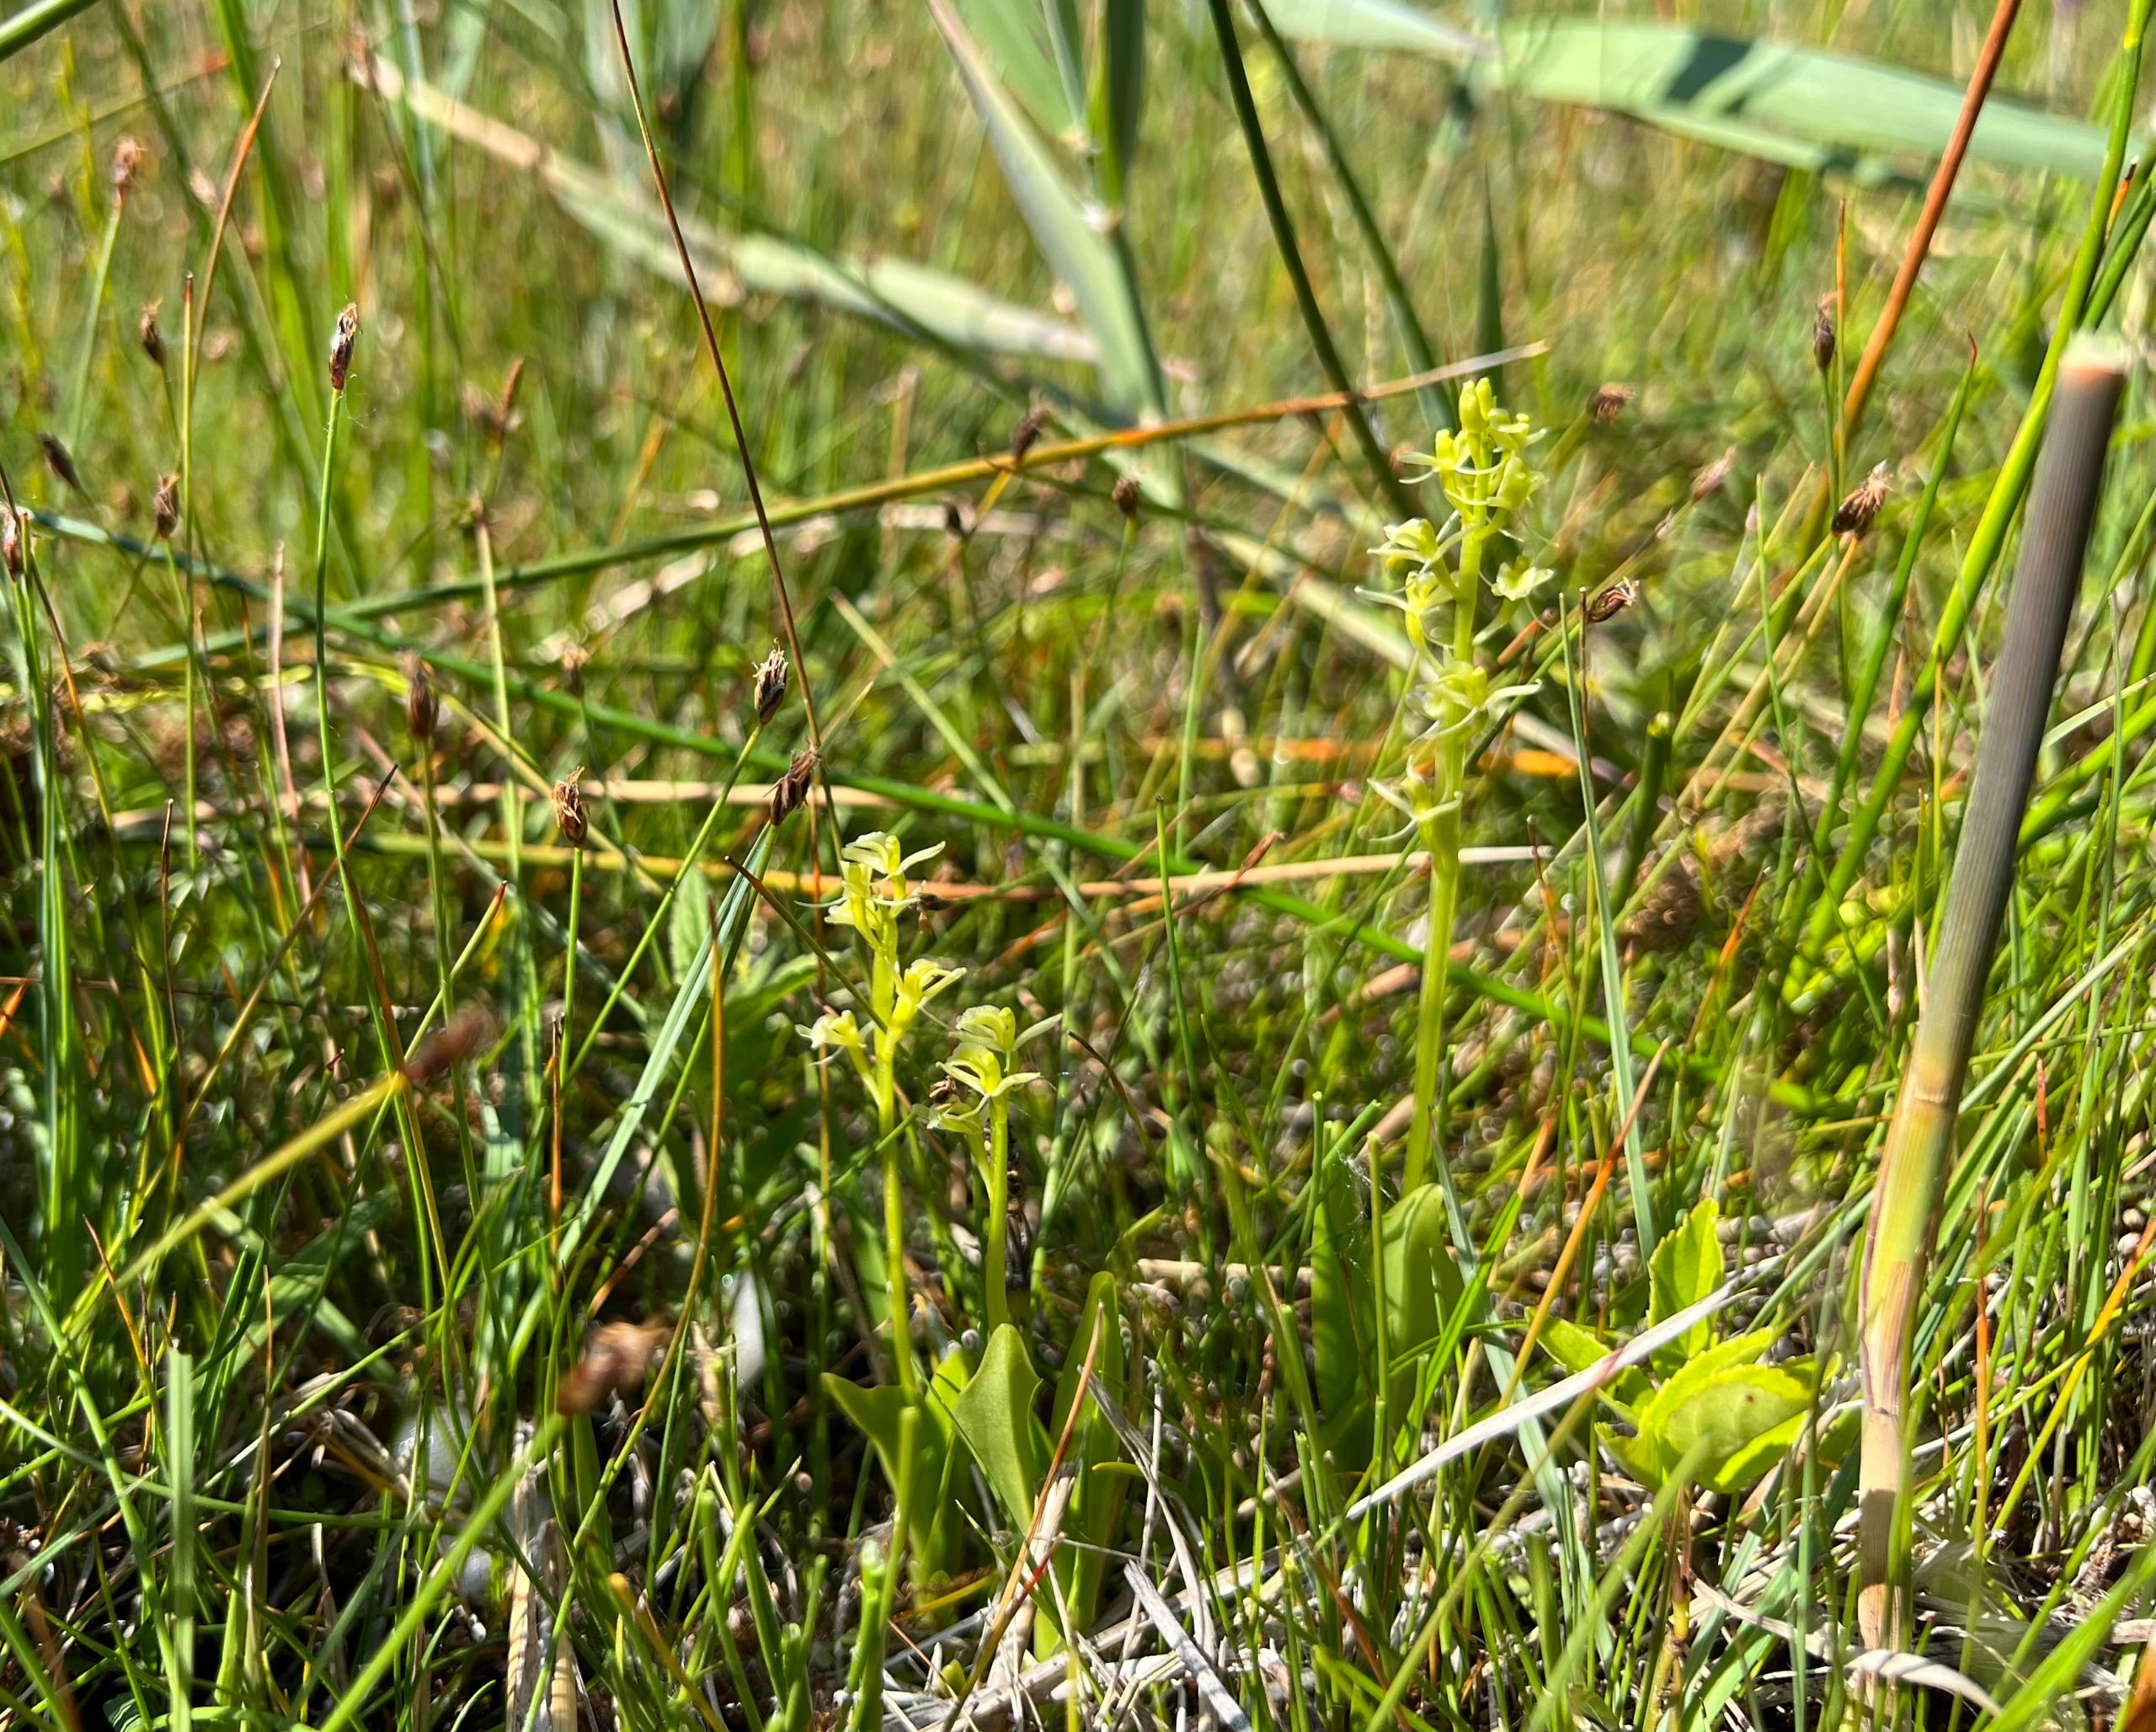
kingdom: Animalia
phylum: Arthropoda
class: Insecta
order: Coleoptera
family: Curculionidae
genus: Liparis
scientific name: Liparis loeselii
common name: Mygblomst
